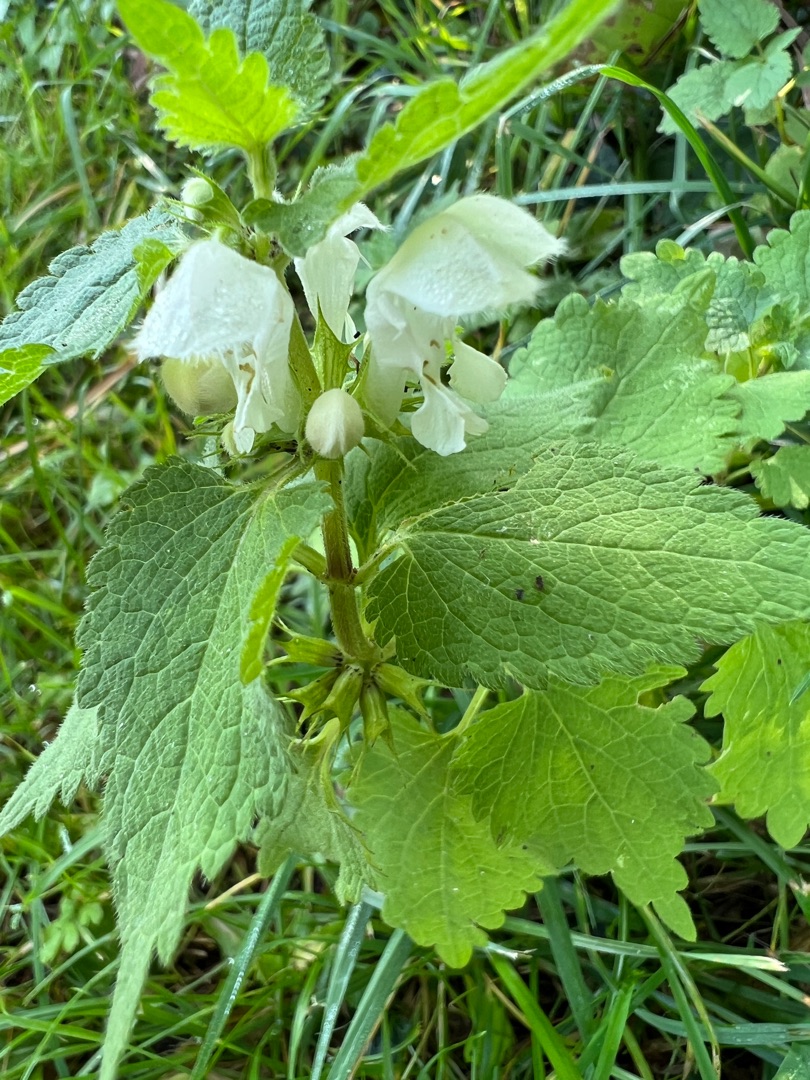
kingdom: Plantae
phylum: Tracheophyta
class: Magnoliopsida
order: Lamiales
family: Lamiaceae
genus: Lamium
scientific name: Lamium album
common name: Døvnælde
